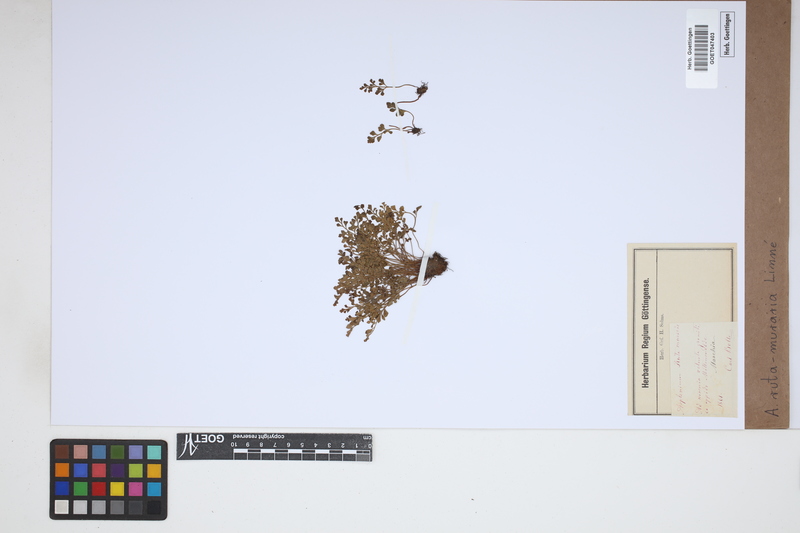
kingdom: Plantae
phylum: Tracheophyta
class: Polypodiopsida
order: Polypodiales
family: Aspleniaceae
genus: Asplenium
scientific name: Asplenium ruta-muraria
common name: Wall-rue
